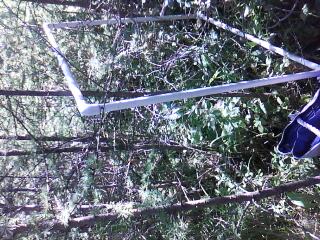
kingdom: Plantae
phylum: Tracheophyta
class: Liliopsida
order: Poales
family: Poaceae
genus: Leersia
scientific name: Leersia oryzoides
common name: Cut-grass
